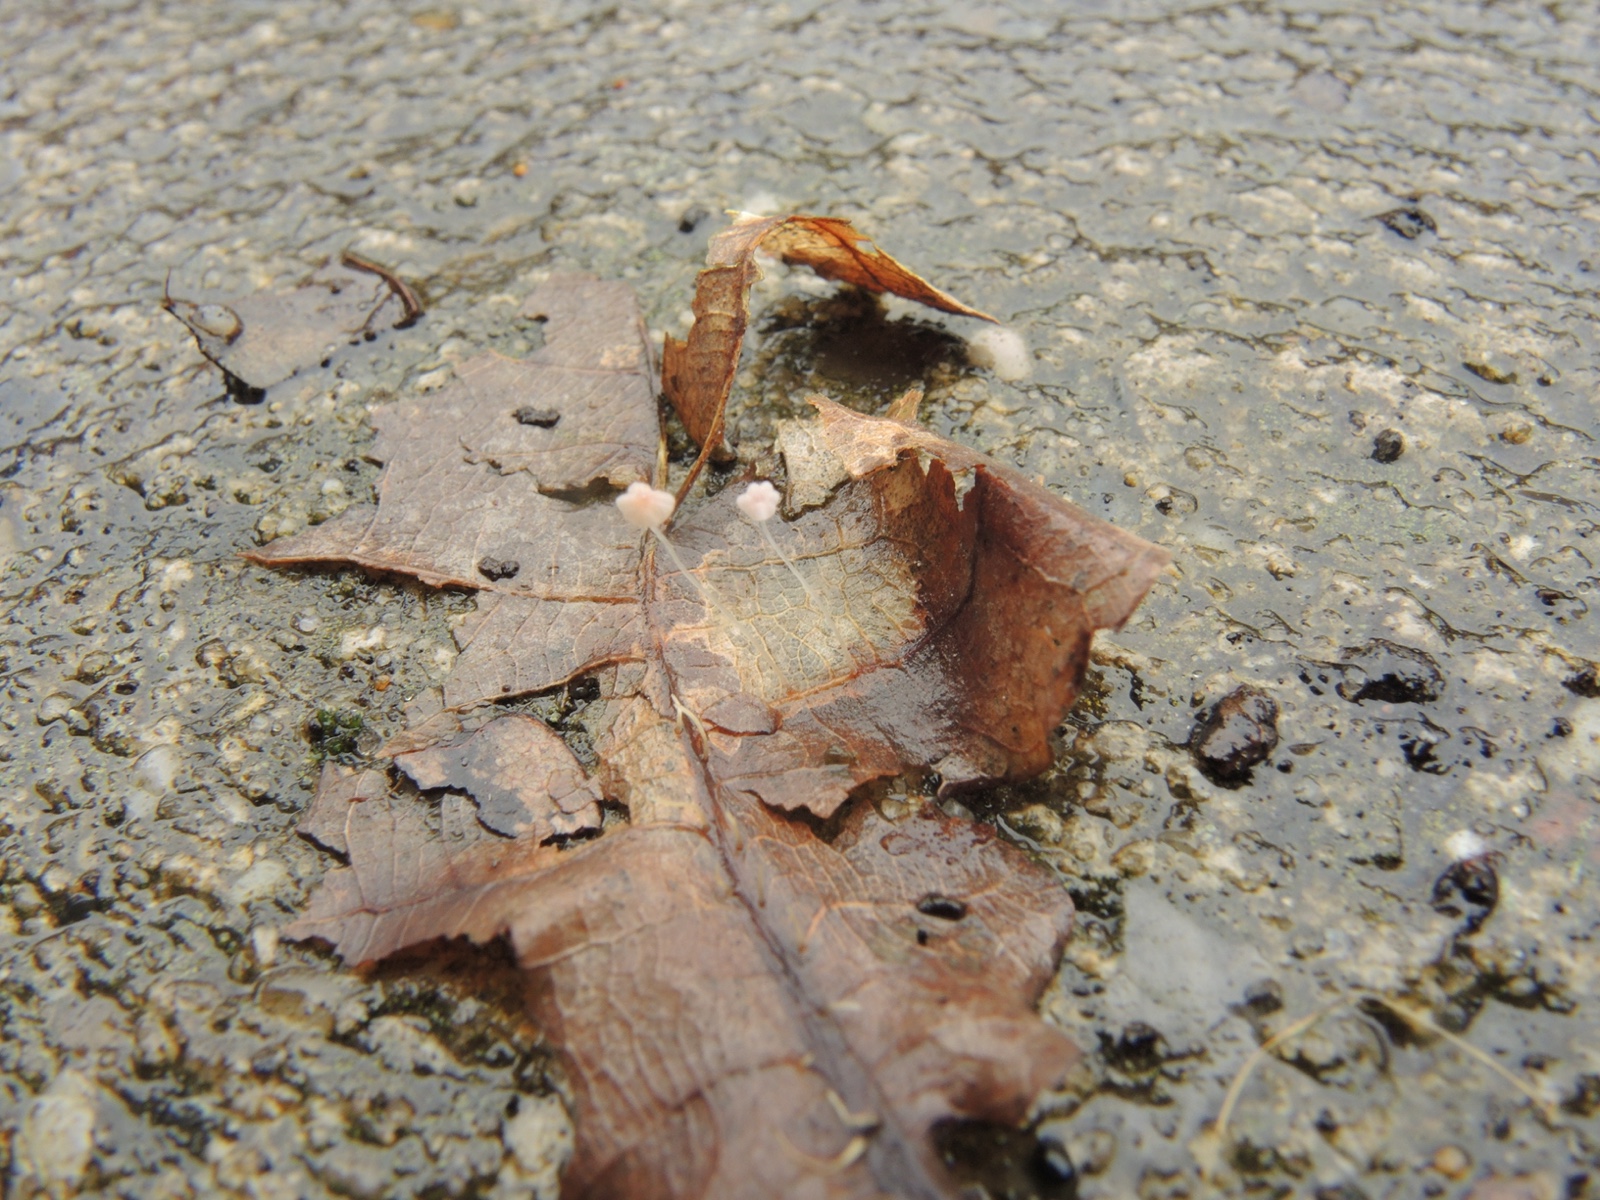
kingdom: Fungi
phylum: Basidiomycota
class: Agaricomycetes
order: Agaricales
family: Mycenaceae
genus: Mycena
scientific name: Mycena smithiana
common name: blegrød huesvamp
